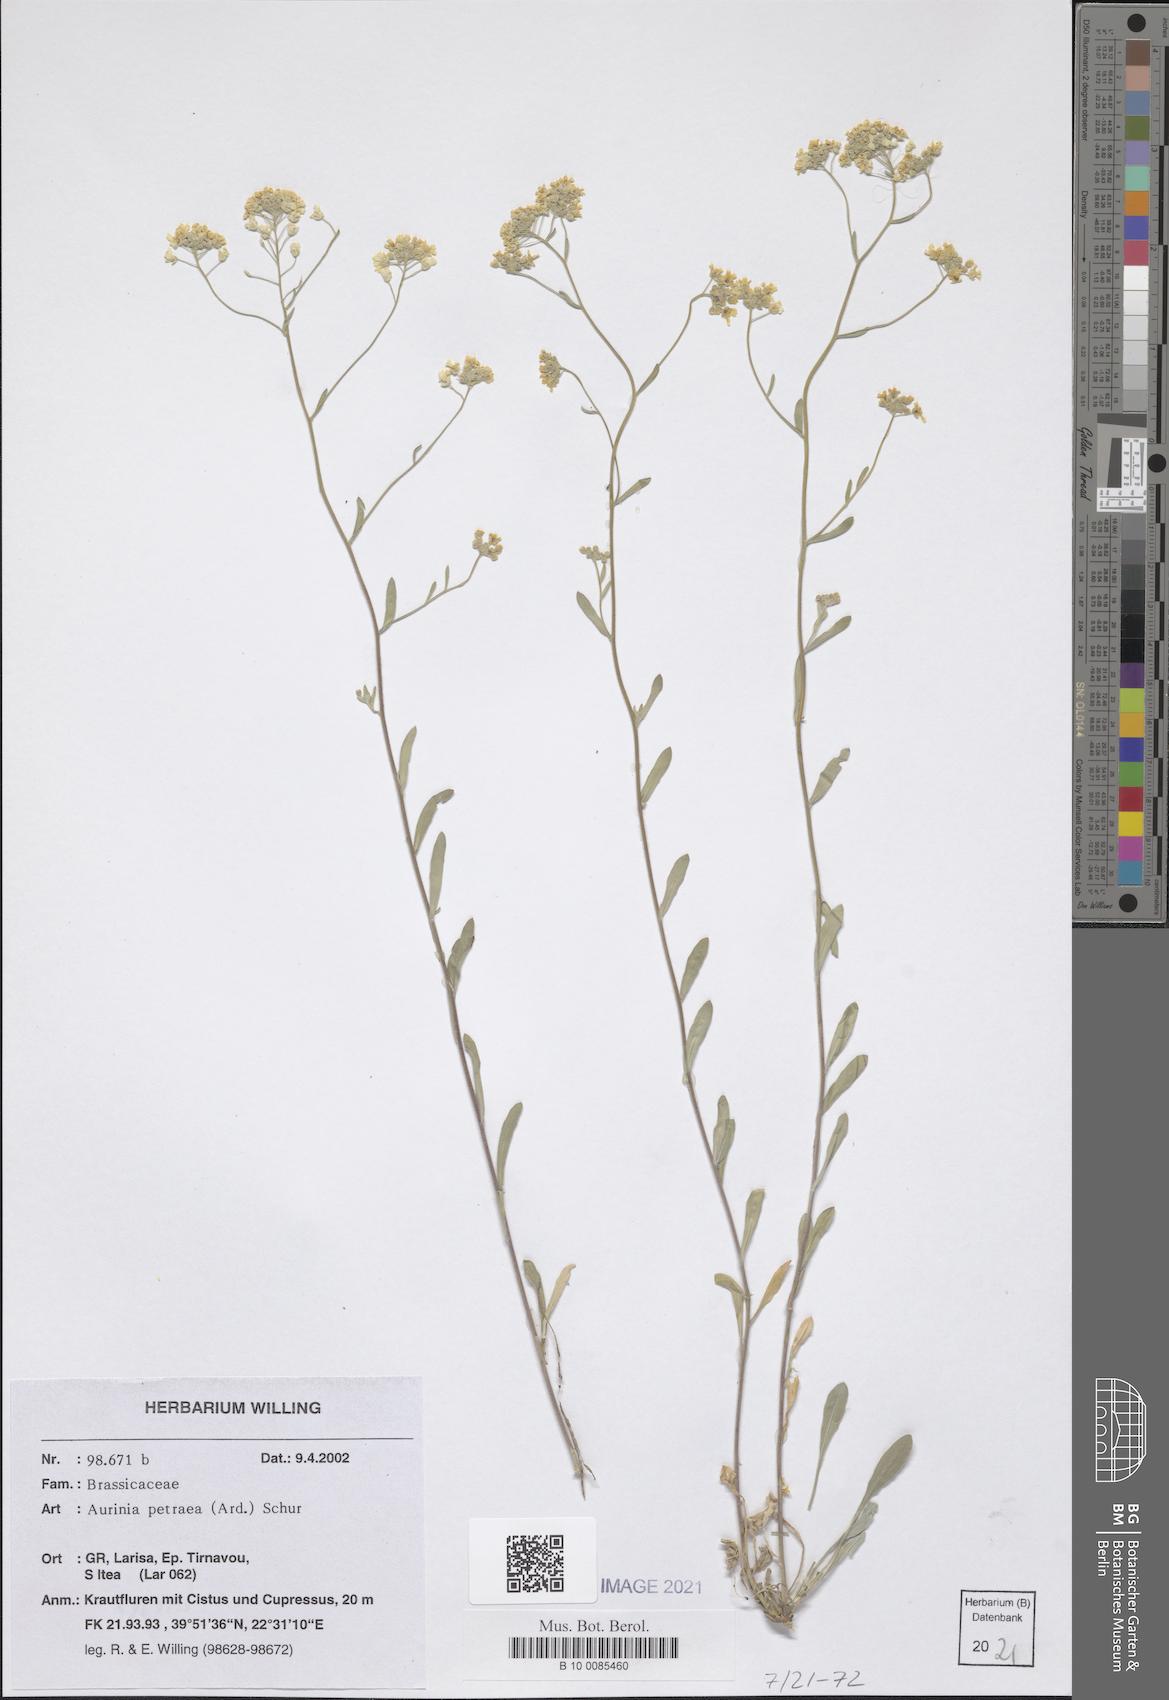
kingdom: Plantae
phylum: Tracheophyta
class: Magnoliopsida
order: Brassicales
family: Brassicaceae
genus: Aurinia
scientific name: Aurinia petraea
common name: Goldentuft
